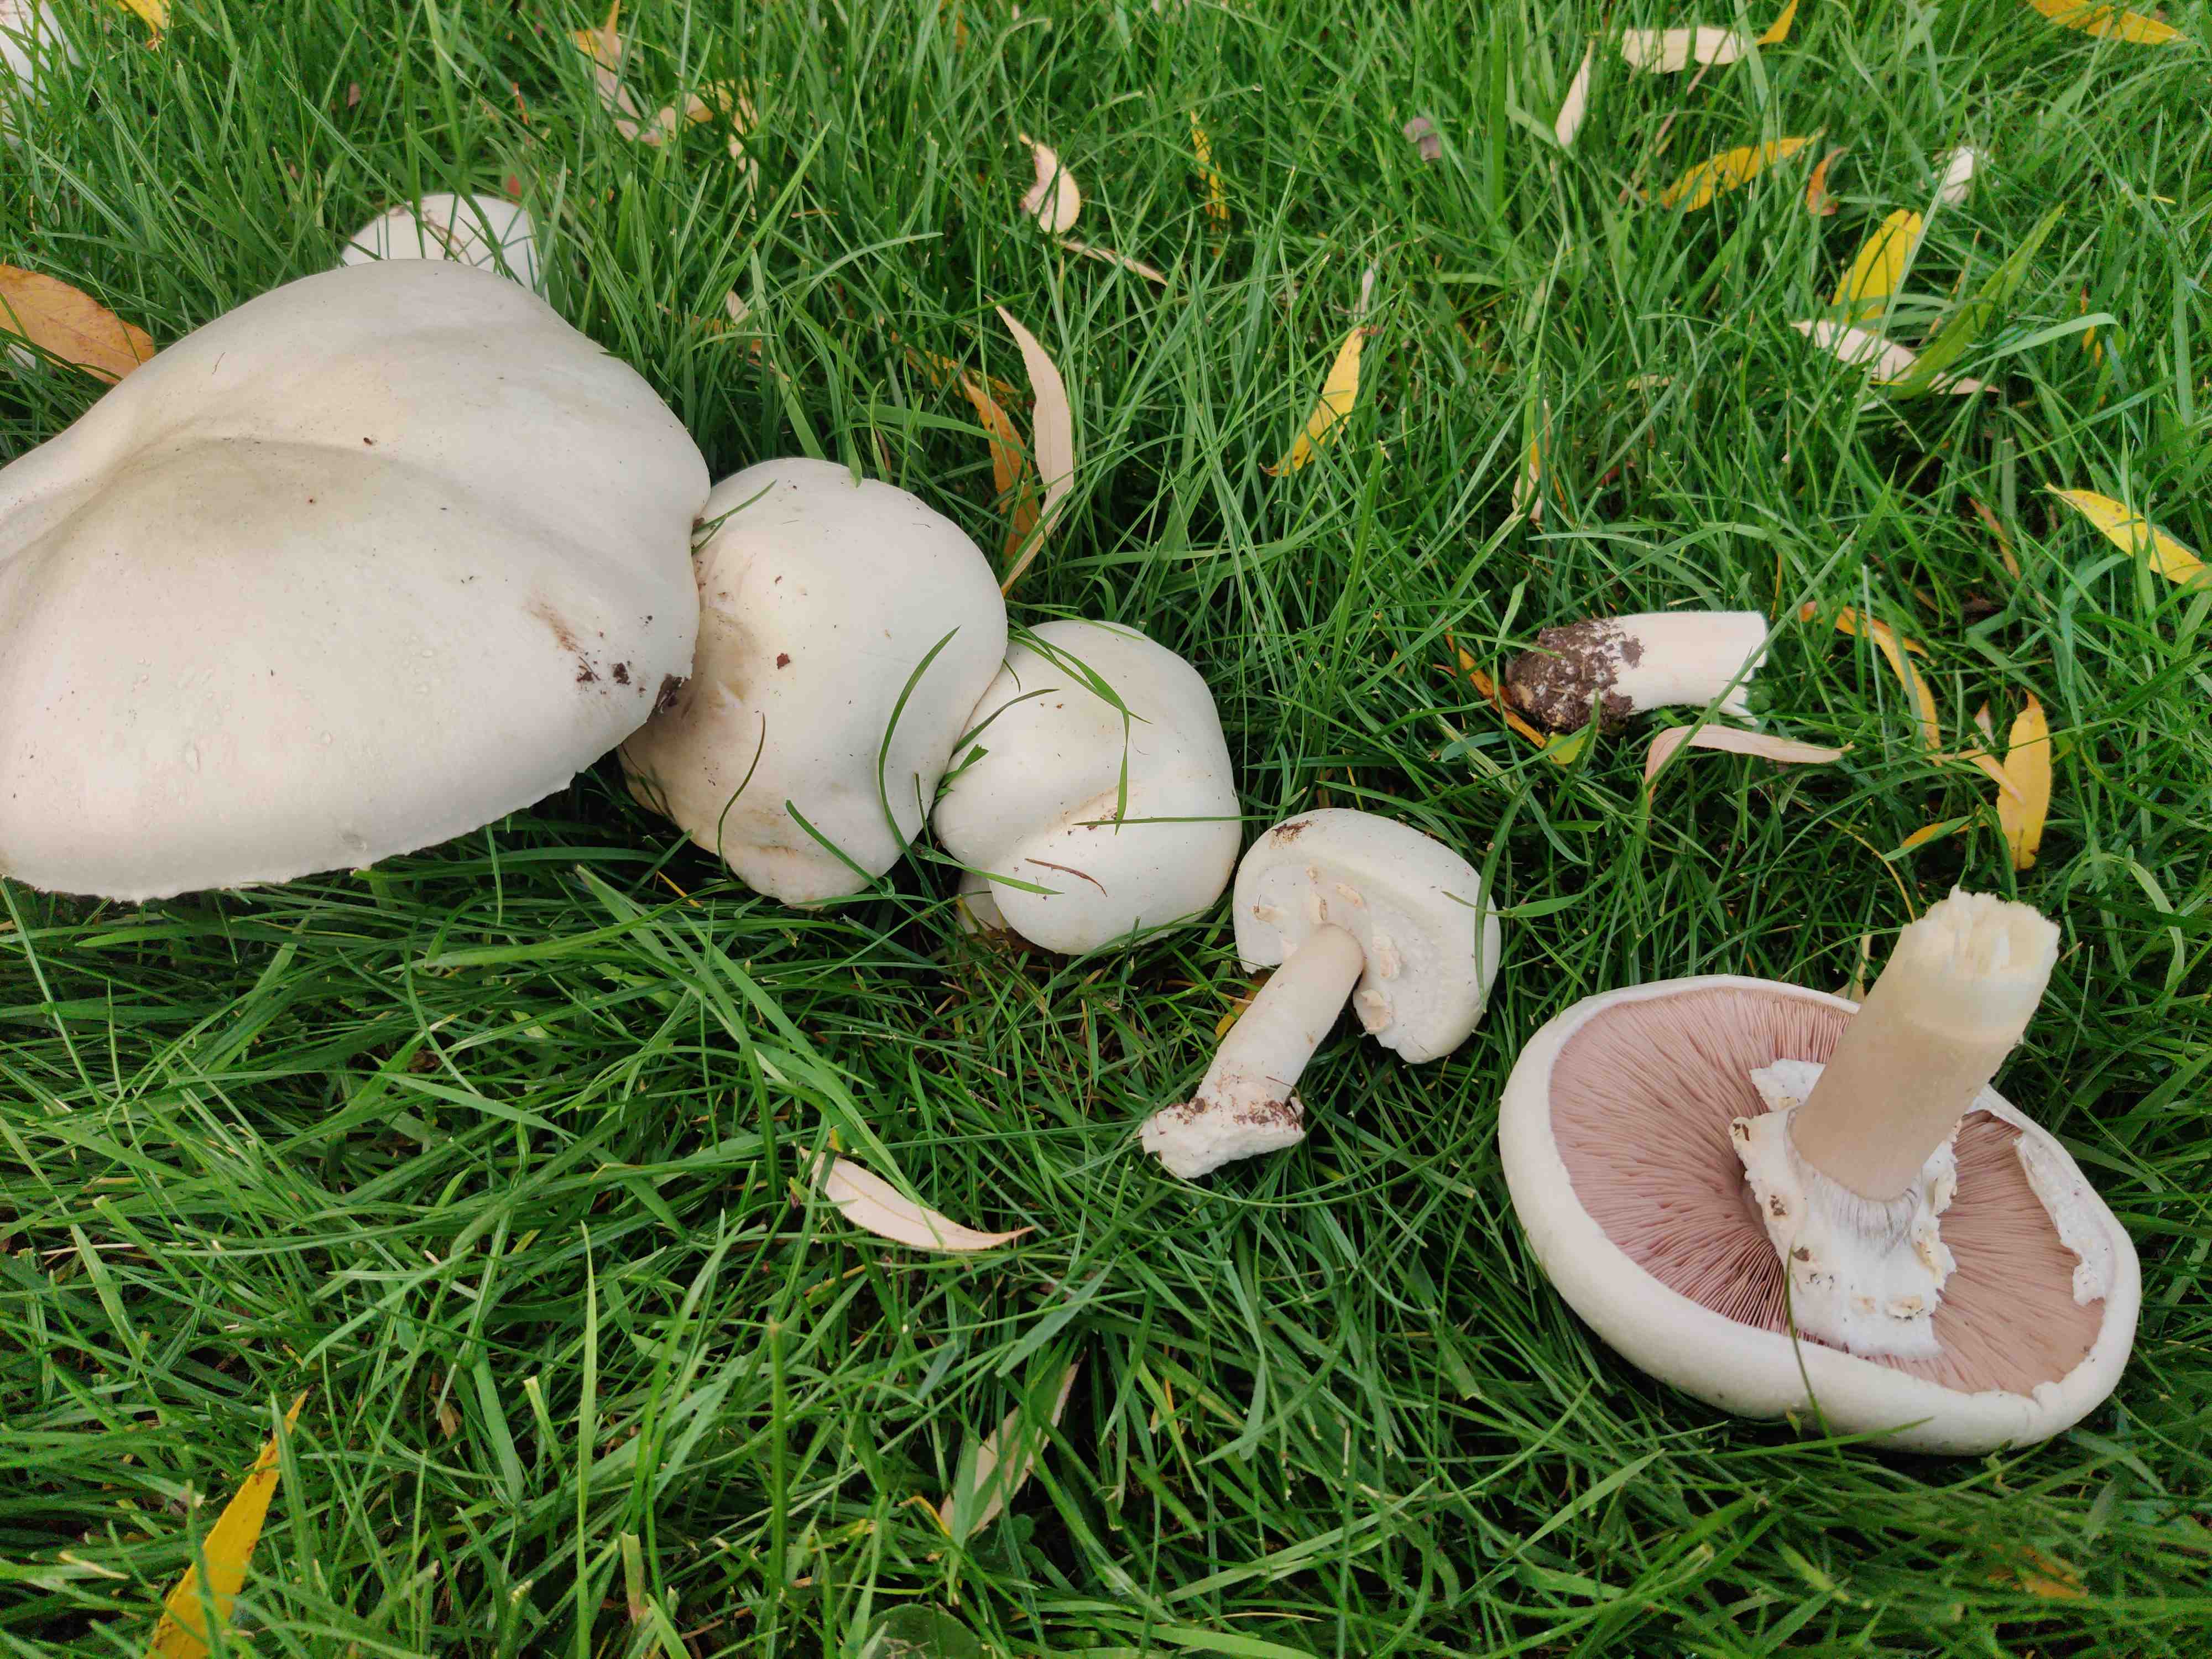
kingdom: Fungi
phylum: Basidiomycota
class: Agaricomycetes
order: Agaricales
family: Agaricaceae
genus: Agaricus
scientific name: Agaricus arvensis
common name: ager-champignon
